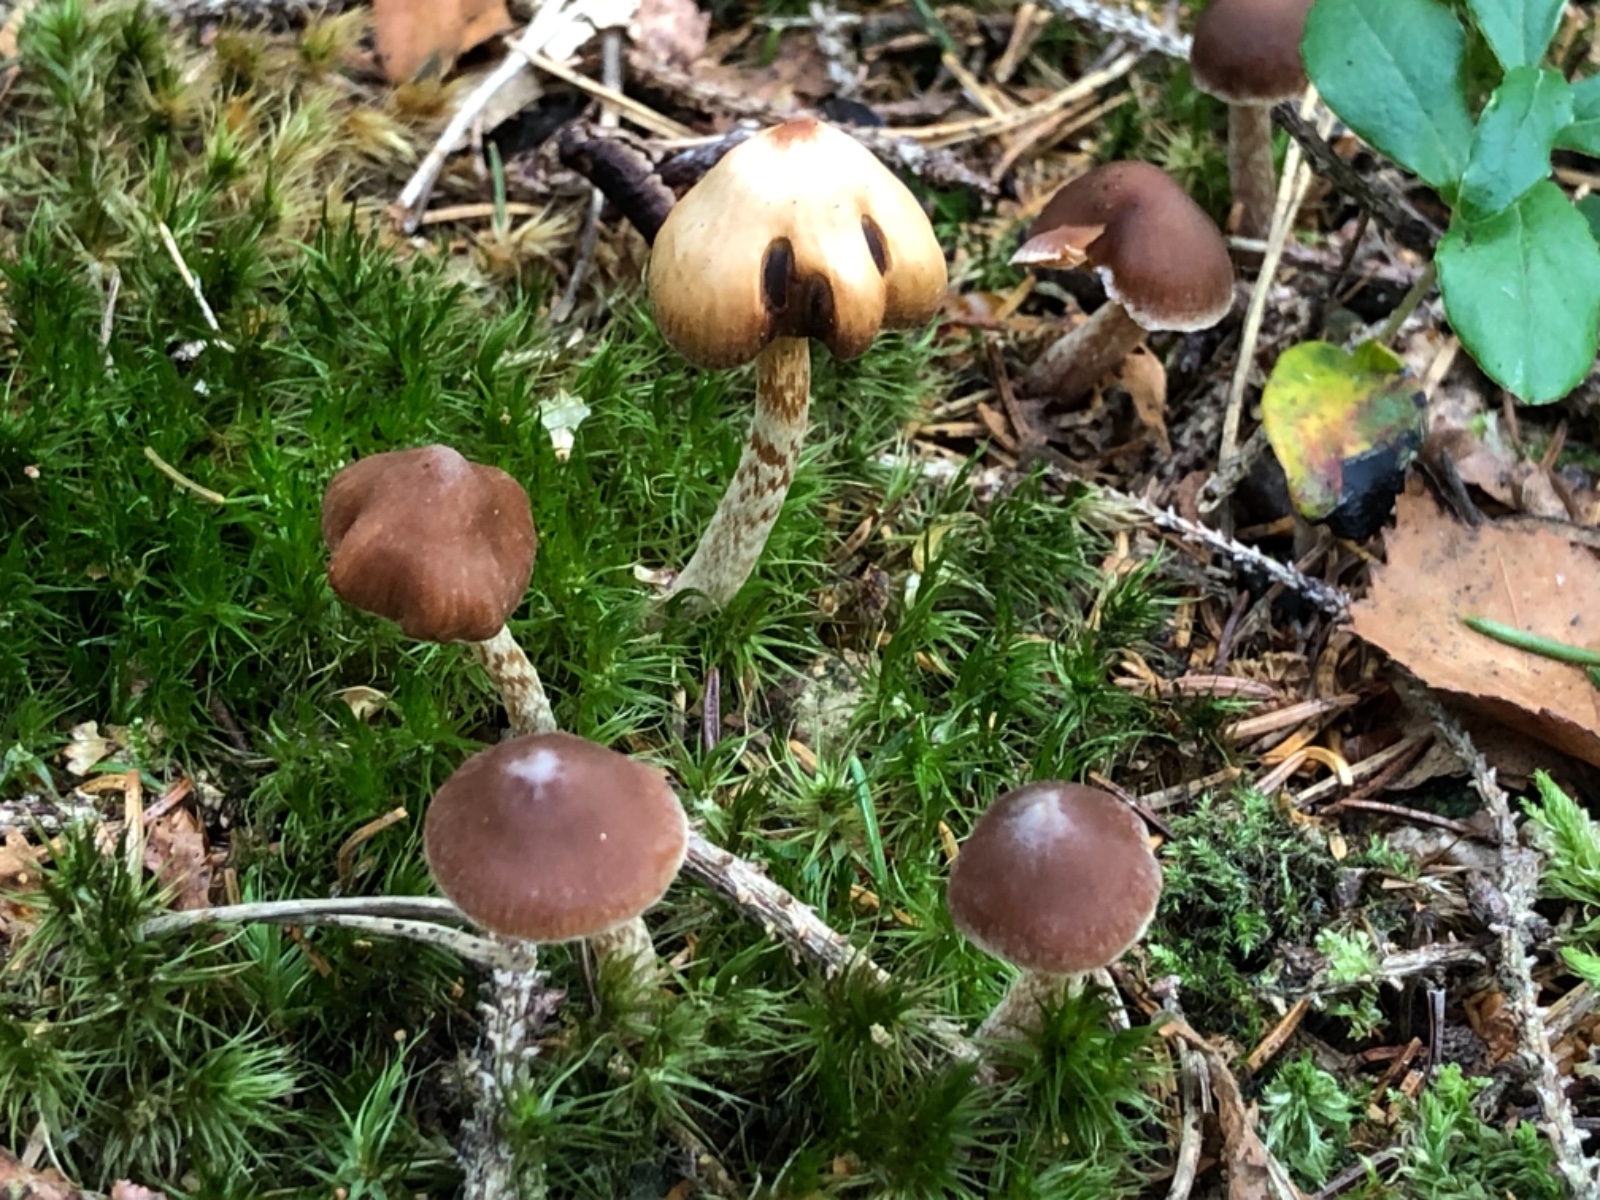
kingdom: Fungi
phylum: Basidiomycota
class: Agaricomycetes
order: Agaricales
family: Cortinariaceae
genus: Cortinarius
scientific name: Cortinarius
